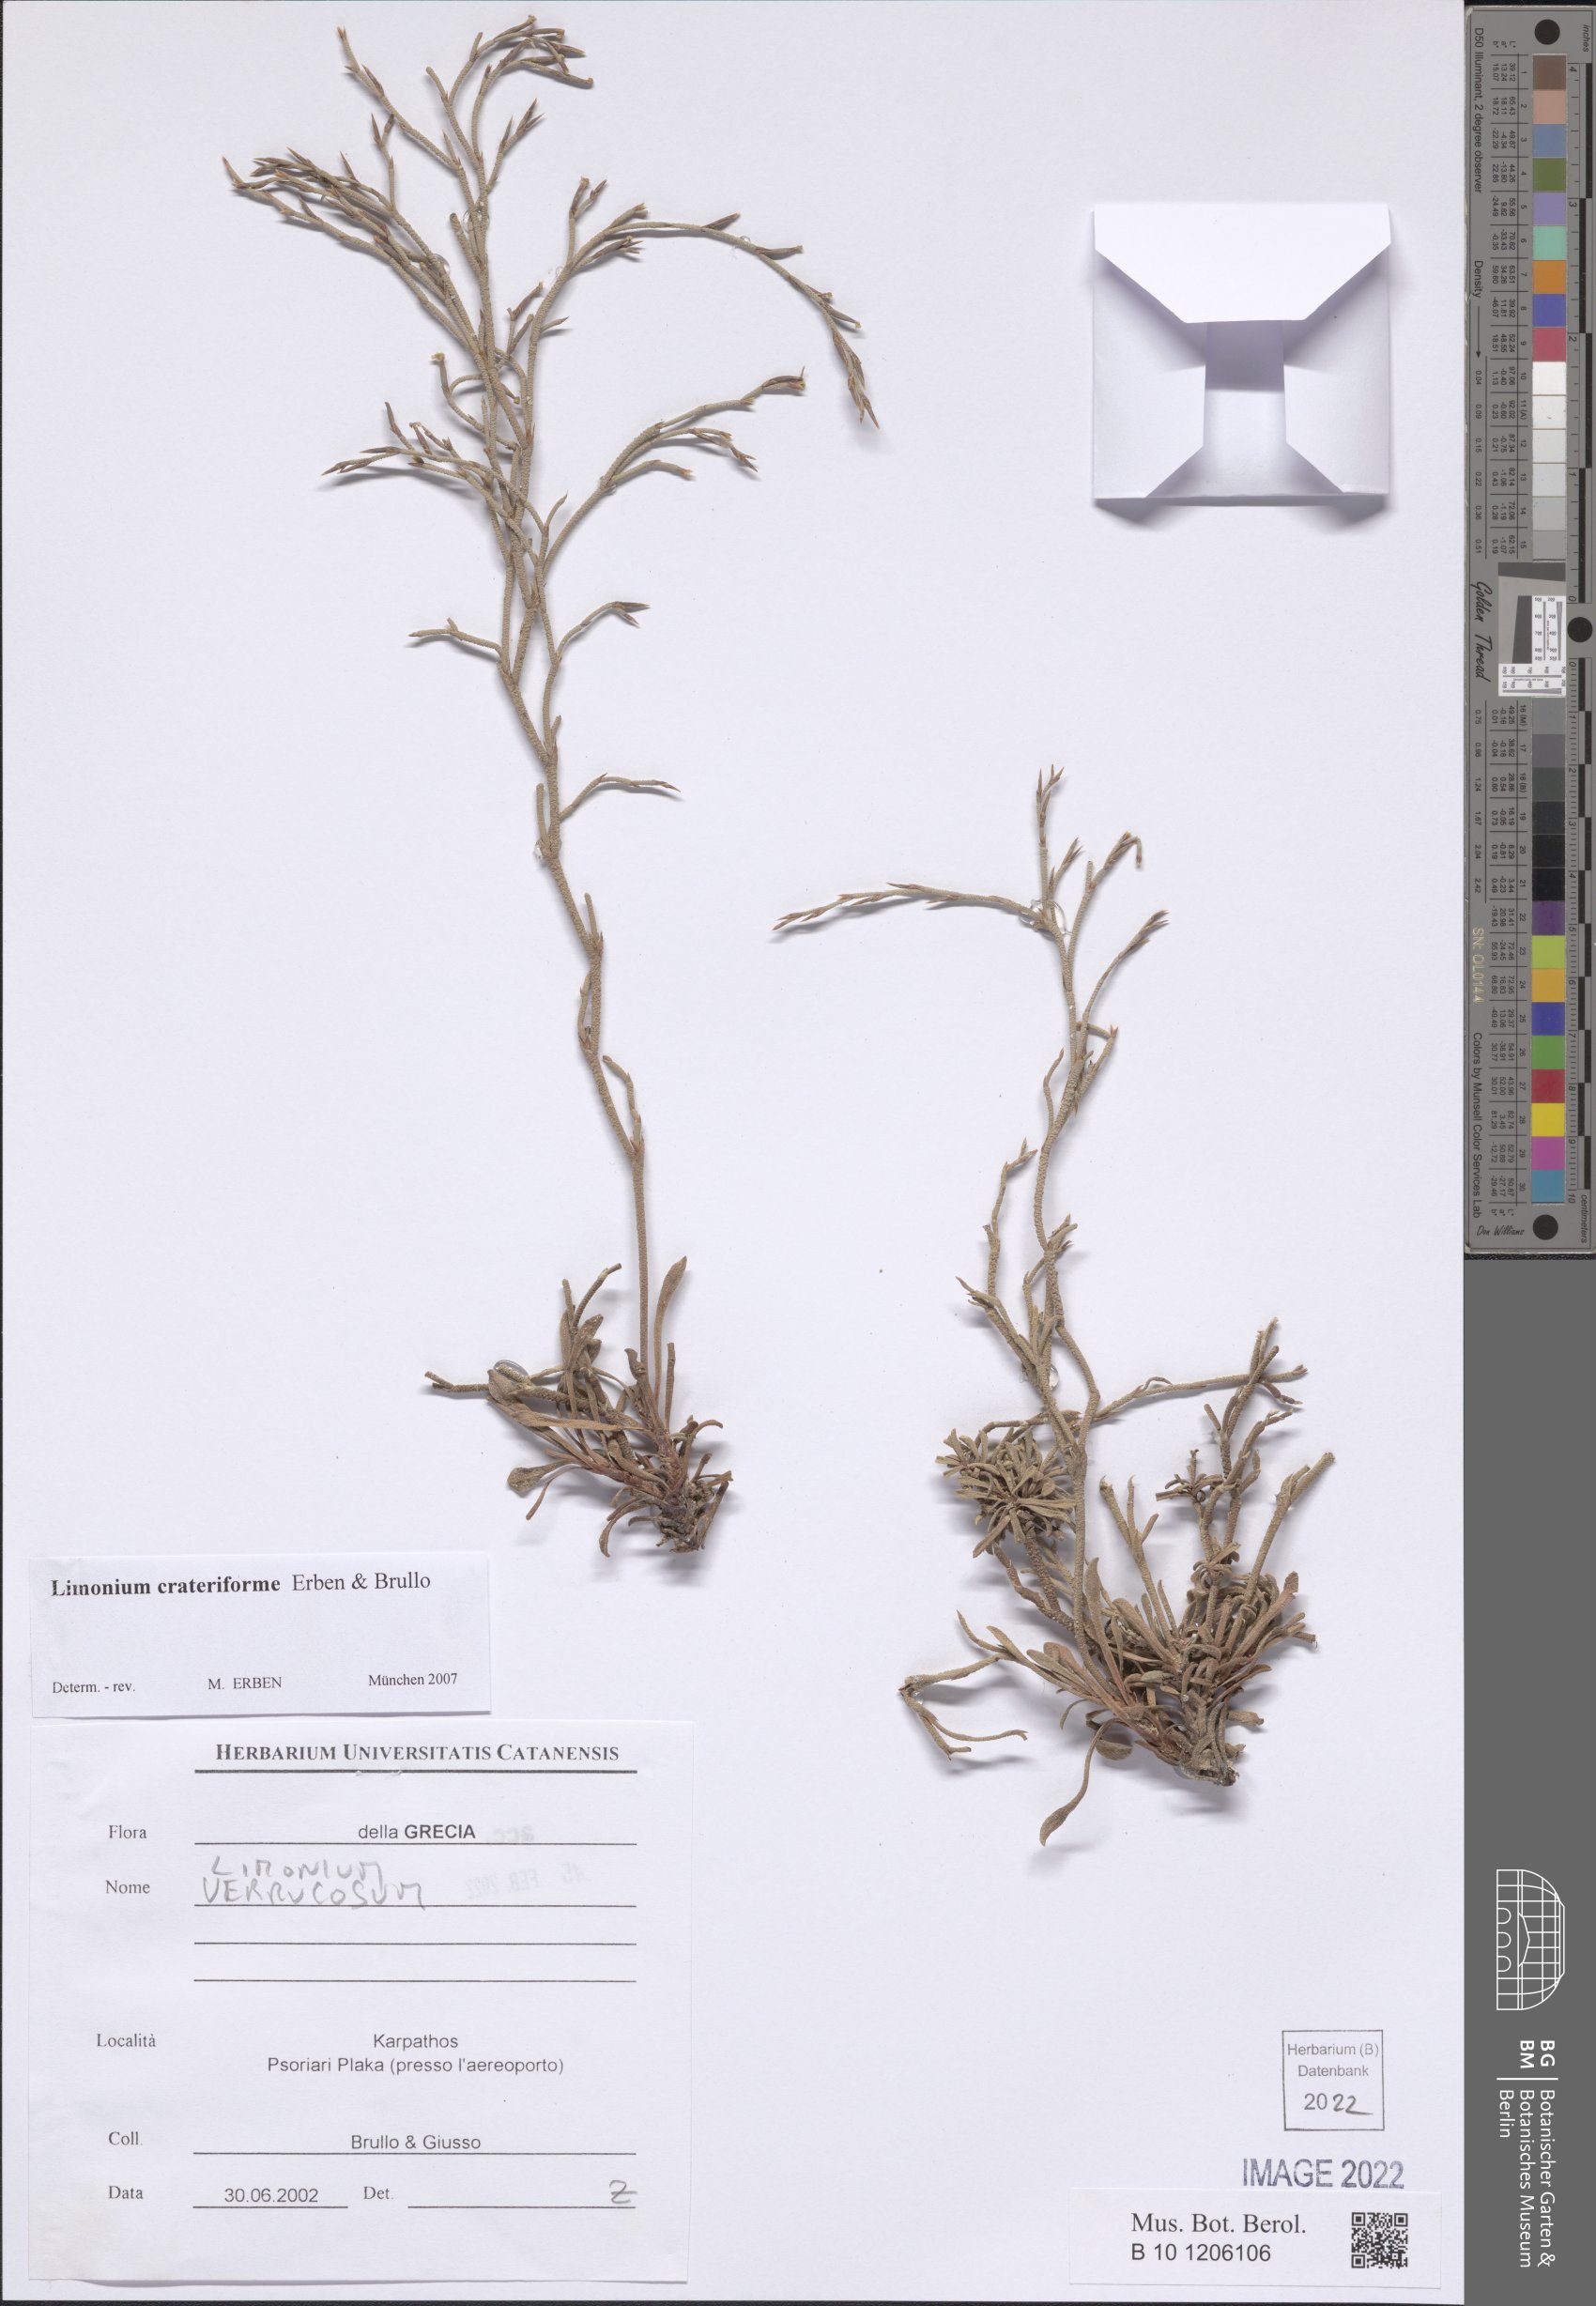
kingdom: Plantae
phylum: Tracheophyta
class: Magnoliopsida
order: Caryophyllales
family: Plumbaginaceae
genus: Limonium
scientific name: Limonium crateriforme
